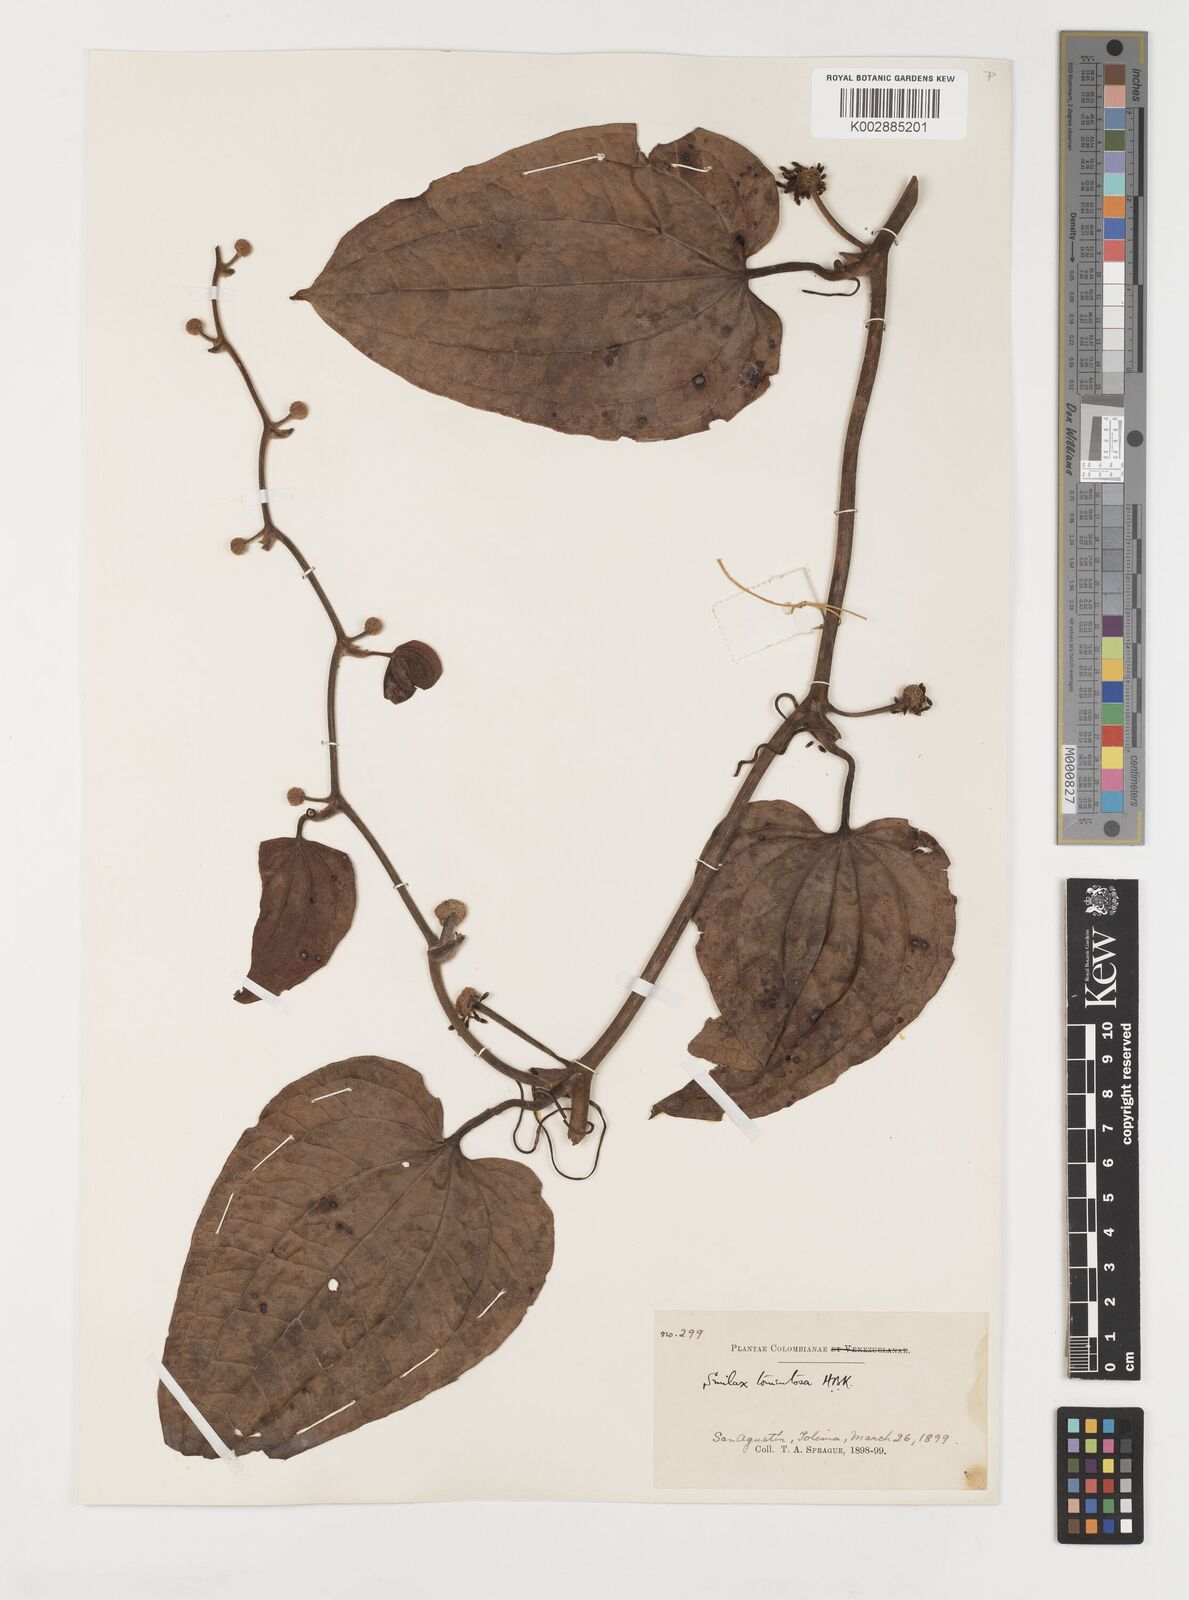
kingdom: Plantae
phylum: Tracheophyta
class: Liliopsida
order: Liliales
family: Smilacaceae
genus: Smilax
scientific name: Smilax tomentosa
